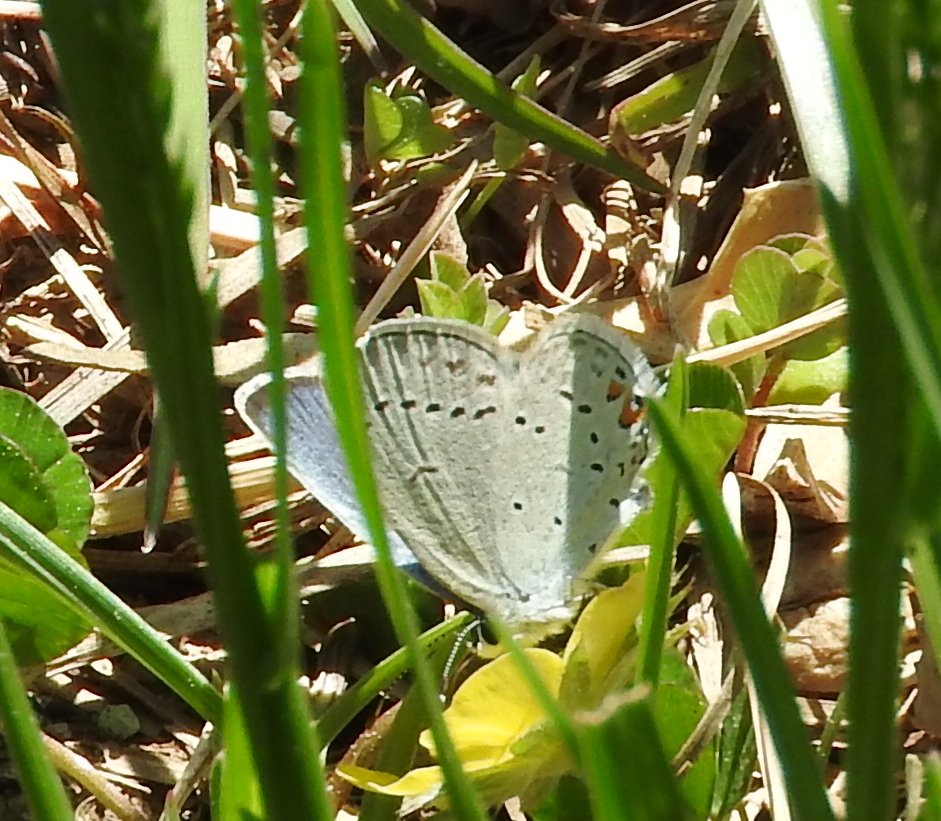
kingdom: Animalia
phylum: Arthropoda
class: Insecta
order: Lepidoptera
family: Lycaenidae
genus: Elkalyce
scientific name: Elkalyce comyntas
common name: Eastern Tailed-Blue
